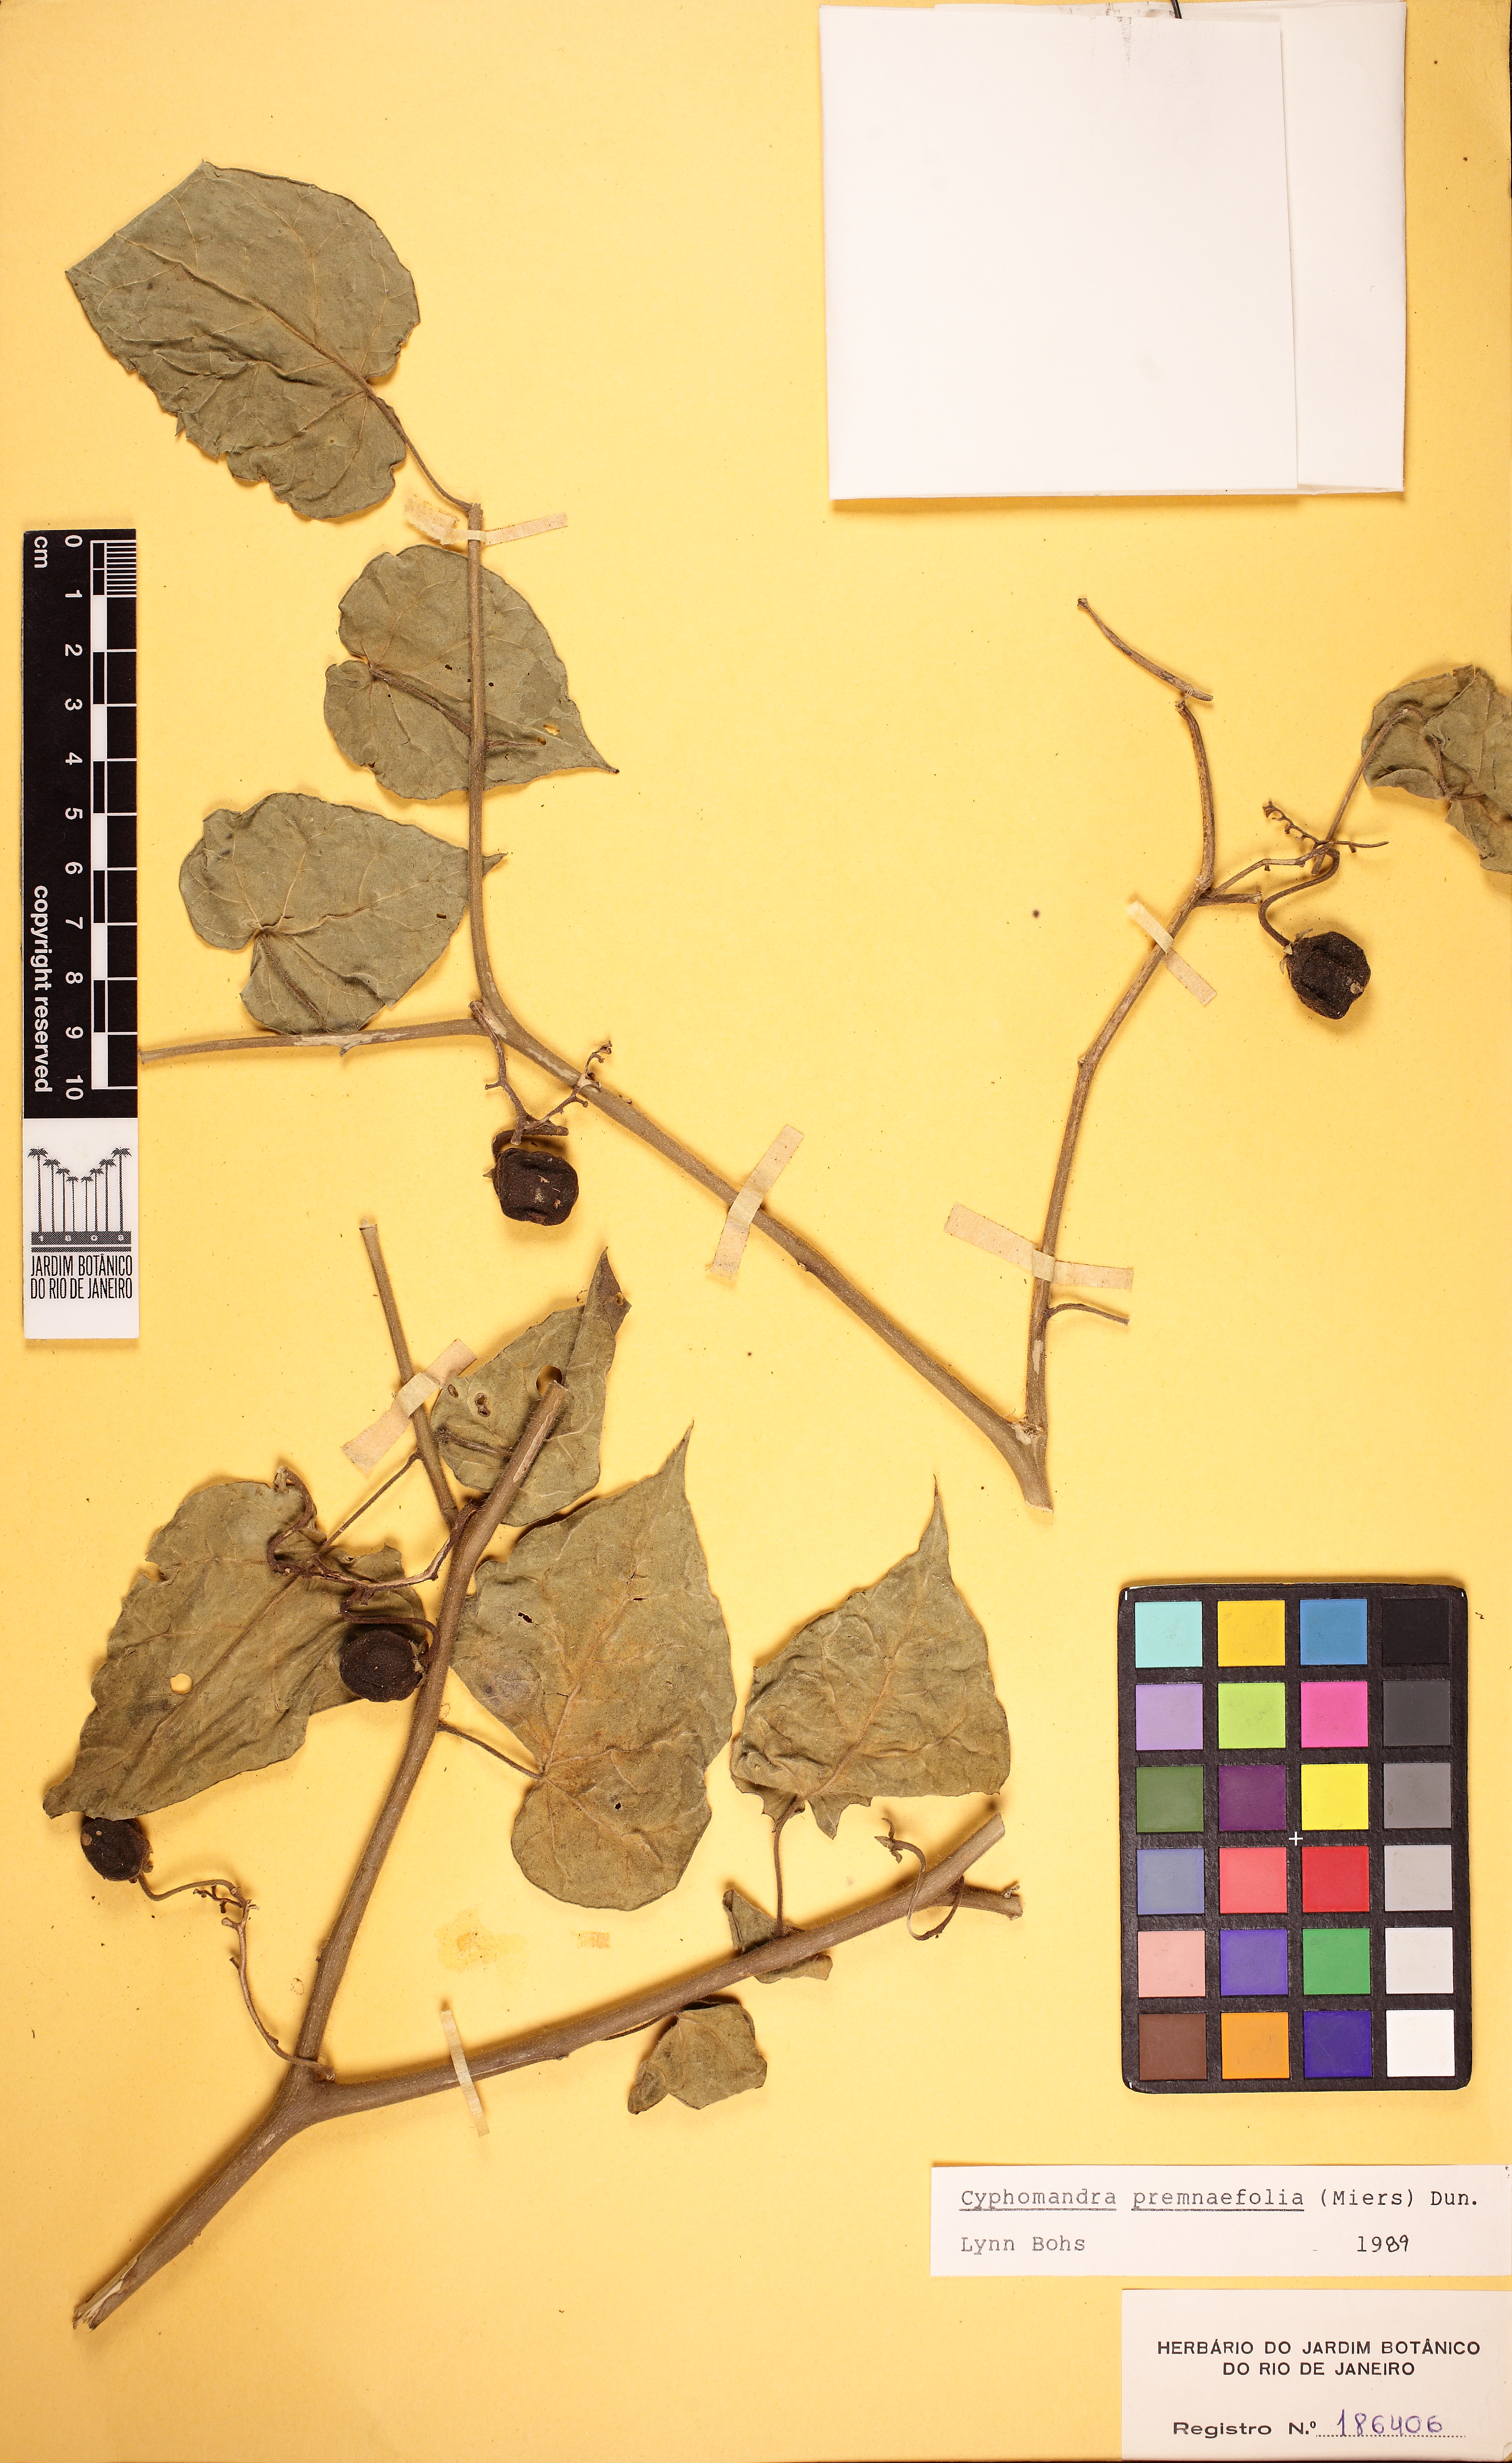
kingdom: Plantae
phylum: Tracheophyta
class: Magnoliopsida
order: Solanales
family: Solanaceae
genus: Solanum
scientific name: Solanum premnifolium
